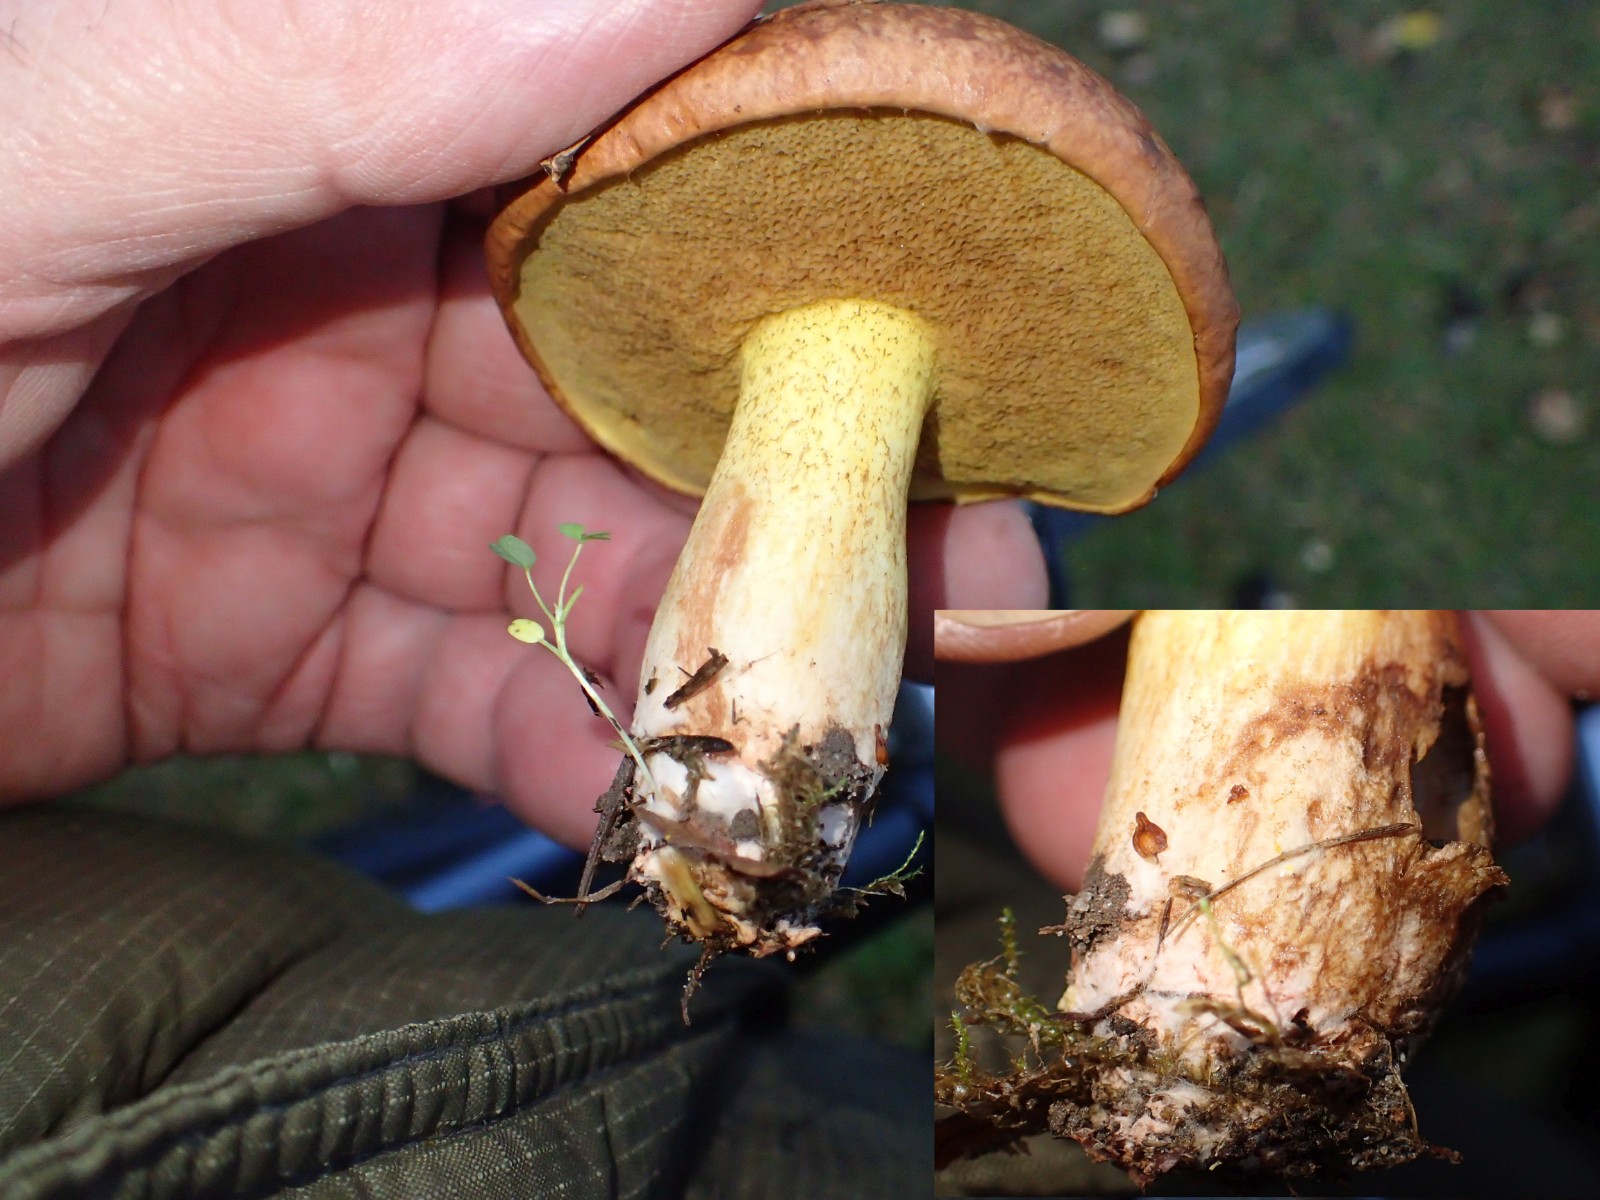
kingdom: Fungi
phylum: Basidiomycota
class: Agaricomycetes
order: Boletales
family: Suillaceae
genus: Suillus
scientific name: Suillus collinitus
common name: rosafodet slimrørhat
